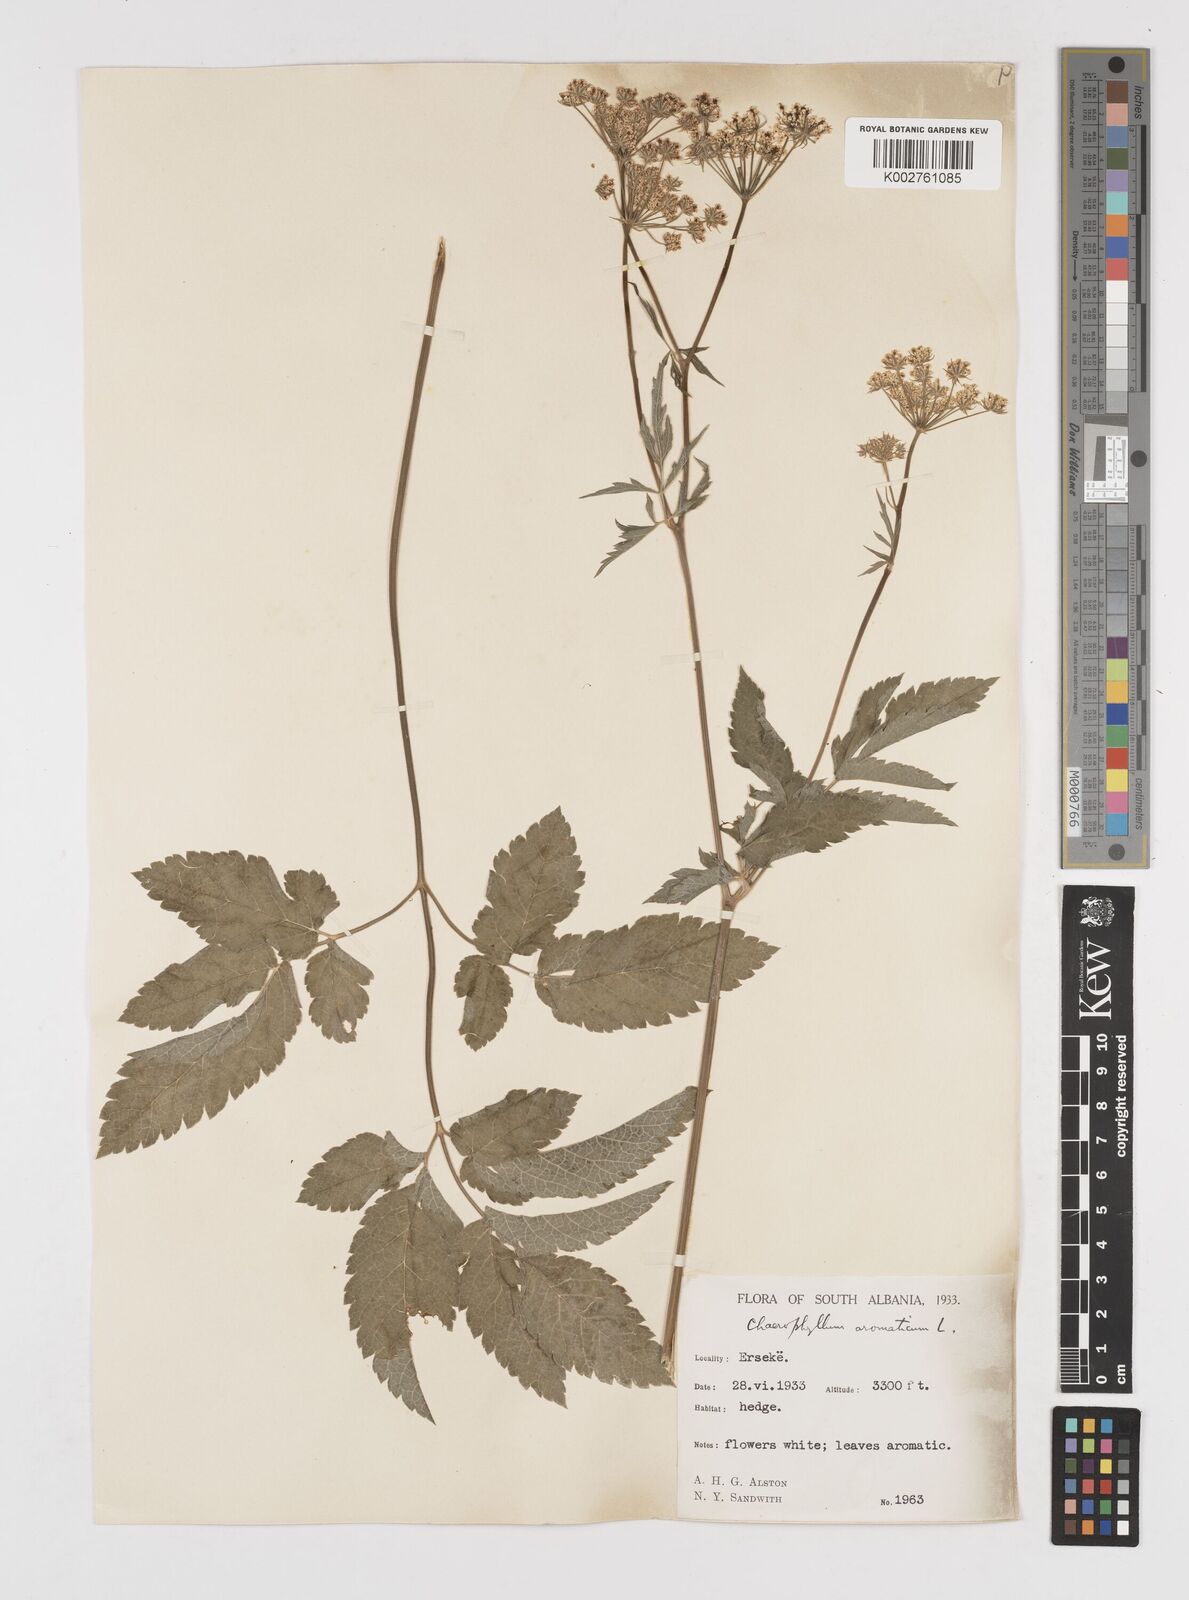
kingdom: Plantae
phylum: Tracheophyta
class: Magnoliopsida
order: Apiales
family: Apiaceae
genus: Chaerophyllum
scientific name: Chaerophyllum aromaticum
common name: Broadleaf chervil
